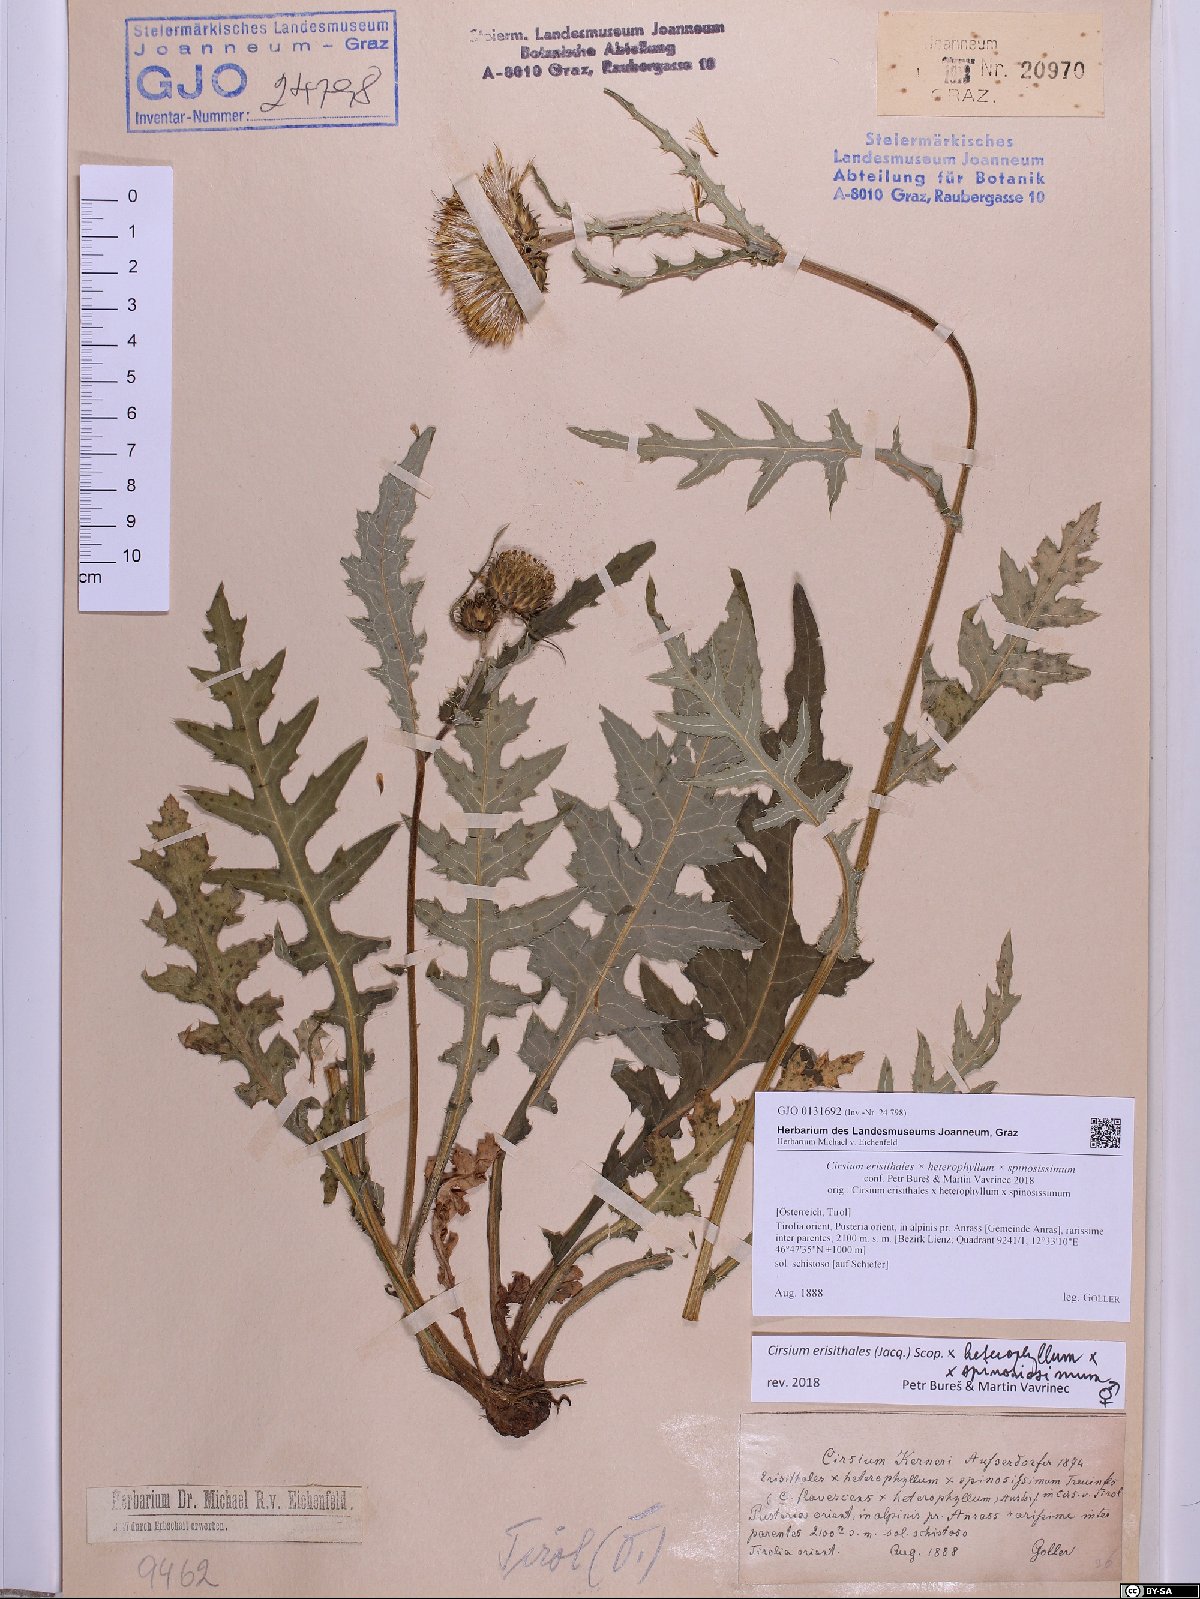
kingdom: Plantae
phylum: Tracheophyta
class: Magnoliopsida
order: Asterales
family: Asteraceae
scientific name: Asteraceae
